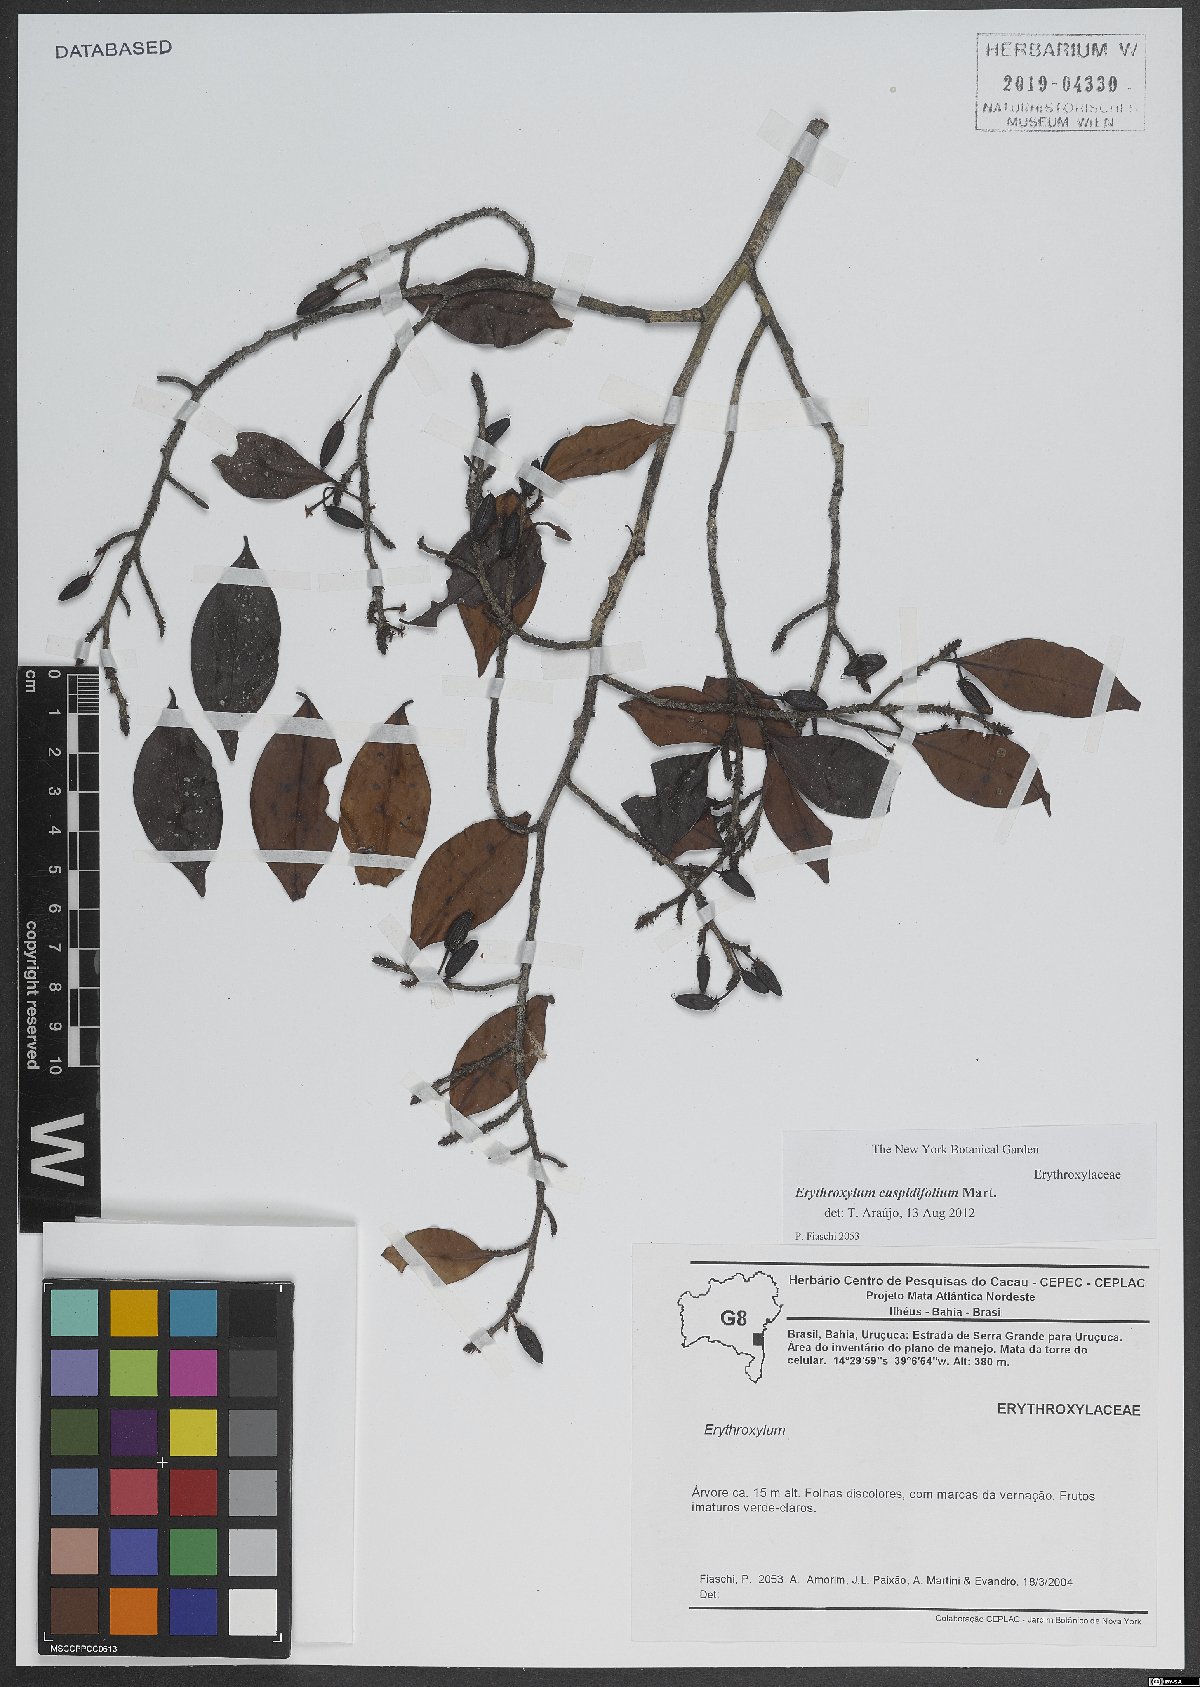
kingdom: Plantae
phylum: Tracheophyta
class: Magnoliopsida
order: Malpighiales
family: Erythroxylaceae
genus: Erythroxylum
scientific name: Erythroxylum cuspidifolium
